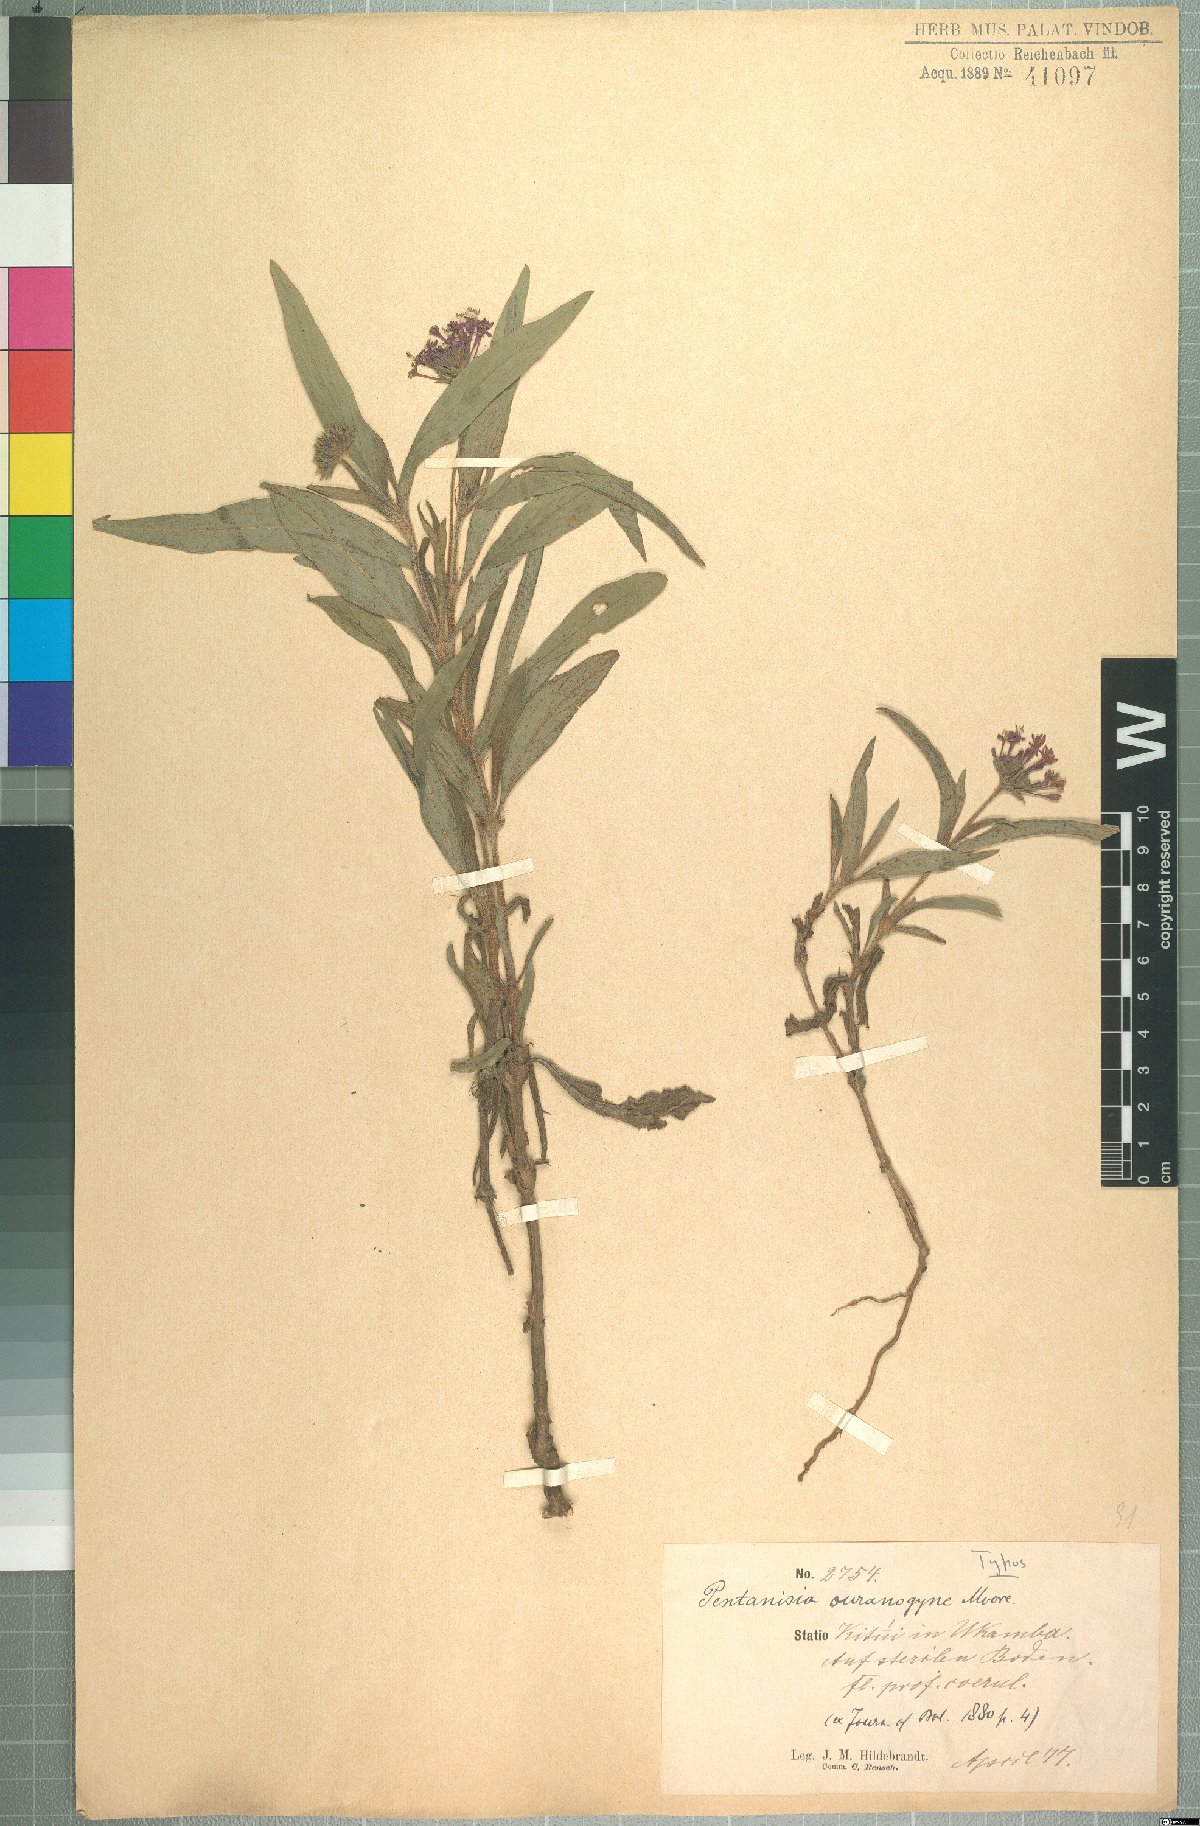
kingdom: Plantae
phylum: Tracheophyta
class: Magnoliopsida
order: Gentianales
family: Rubiaceae
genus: Pentanisia
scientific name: Pentanisia ouranogyne
